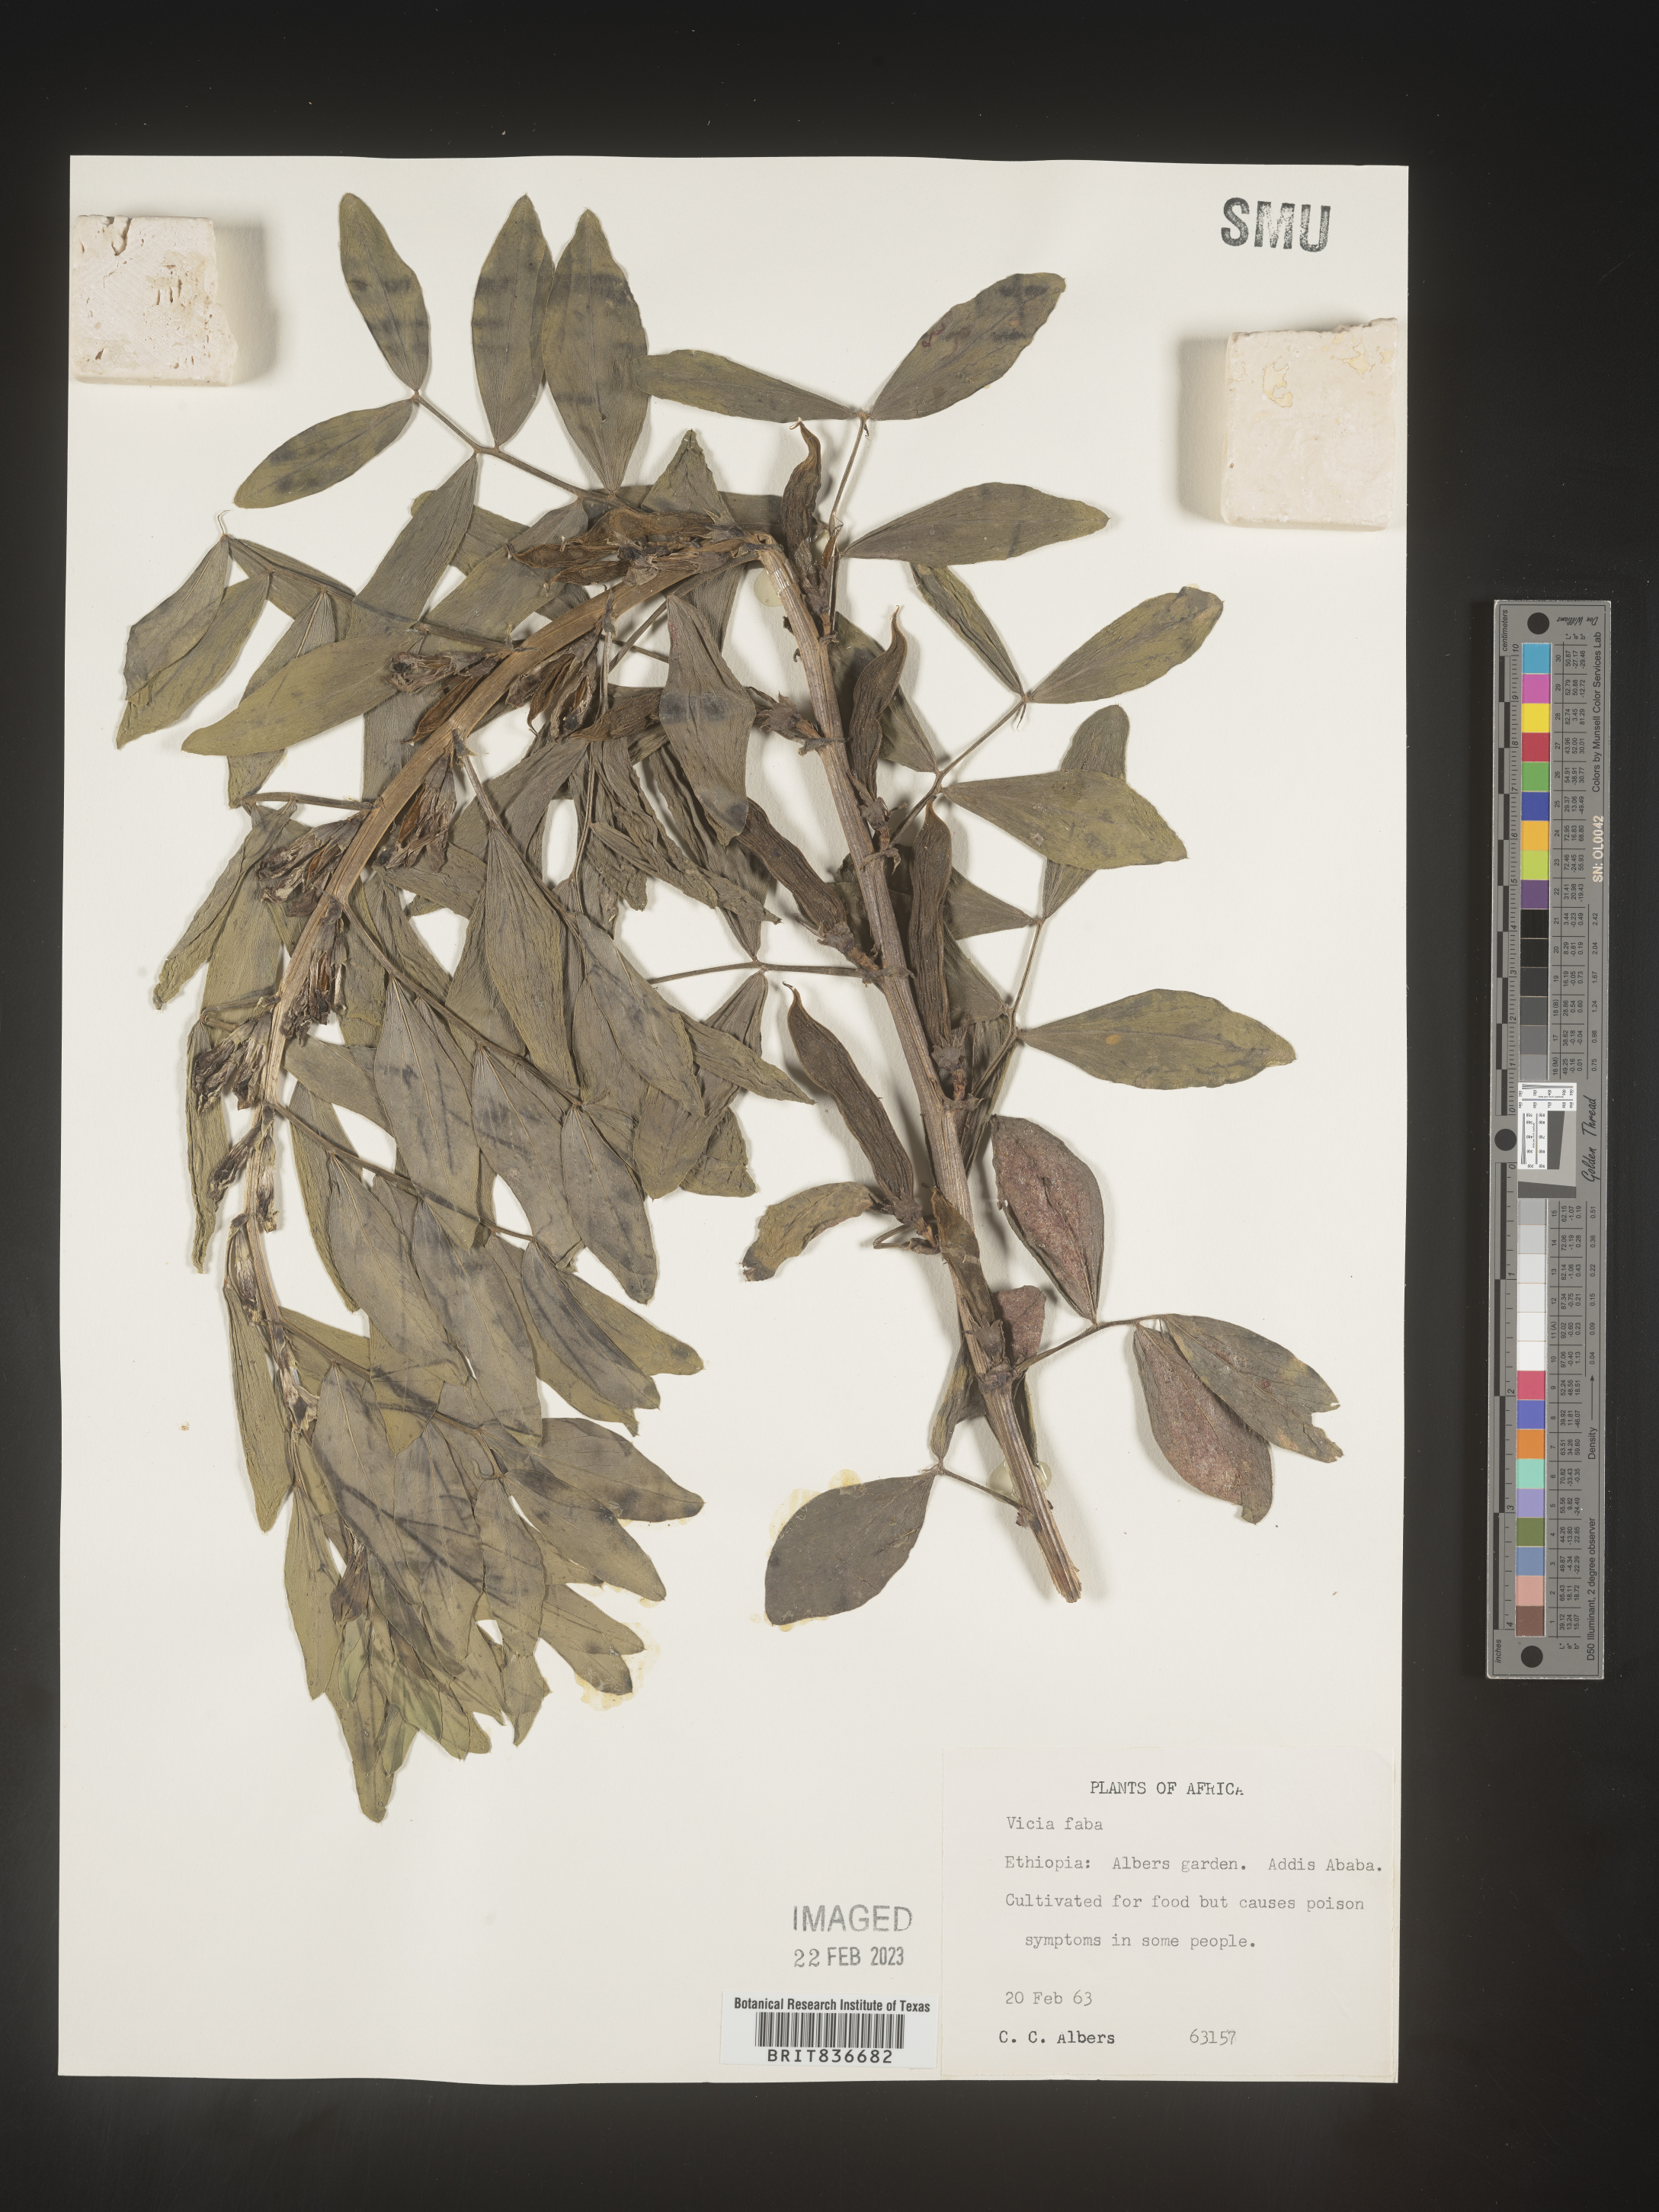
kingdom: Plantae
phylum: Tracheophyta
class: Magnoliopsida
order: Fabales
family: Fabaceae
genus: Vicia
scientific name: Vicia
